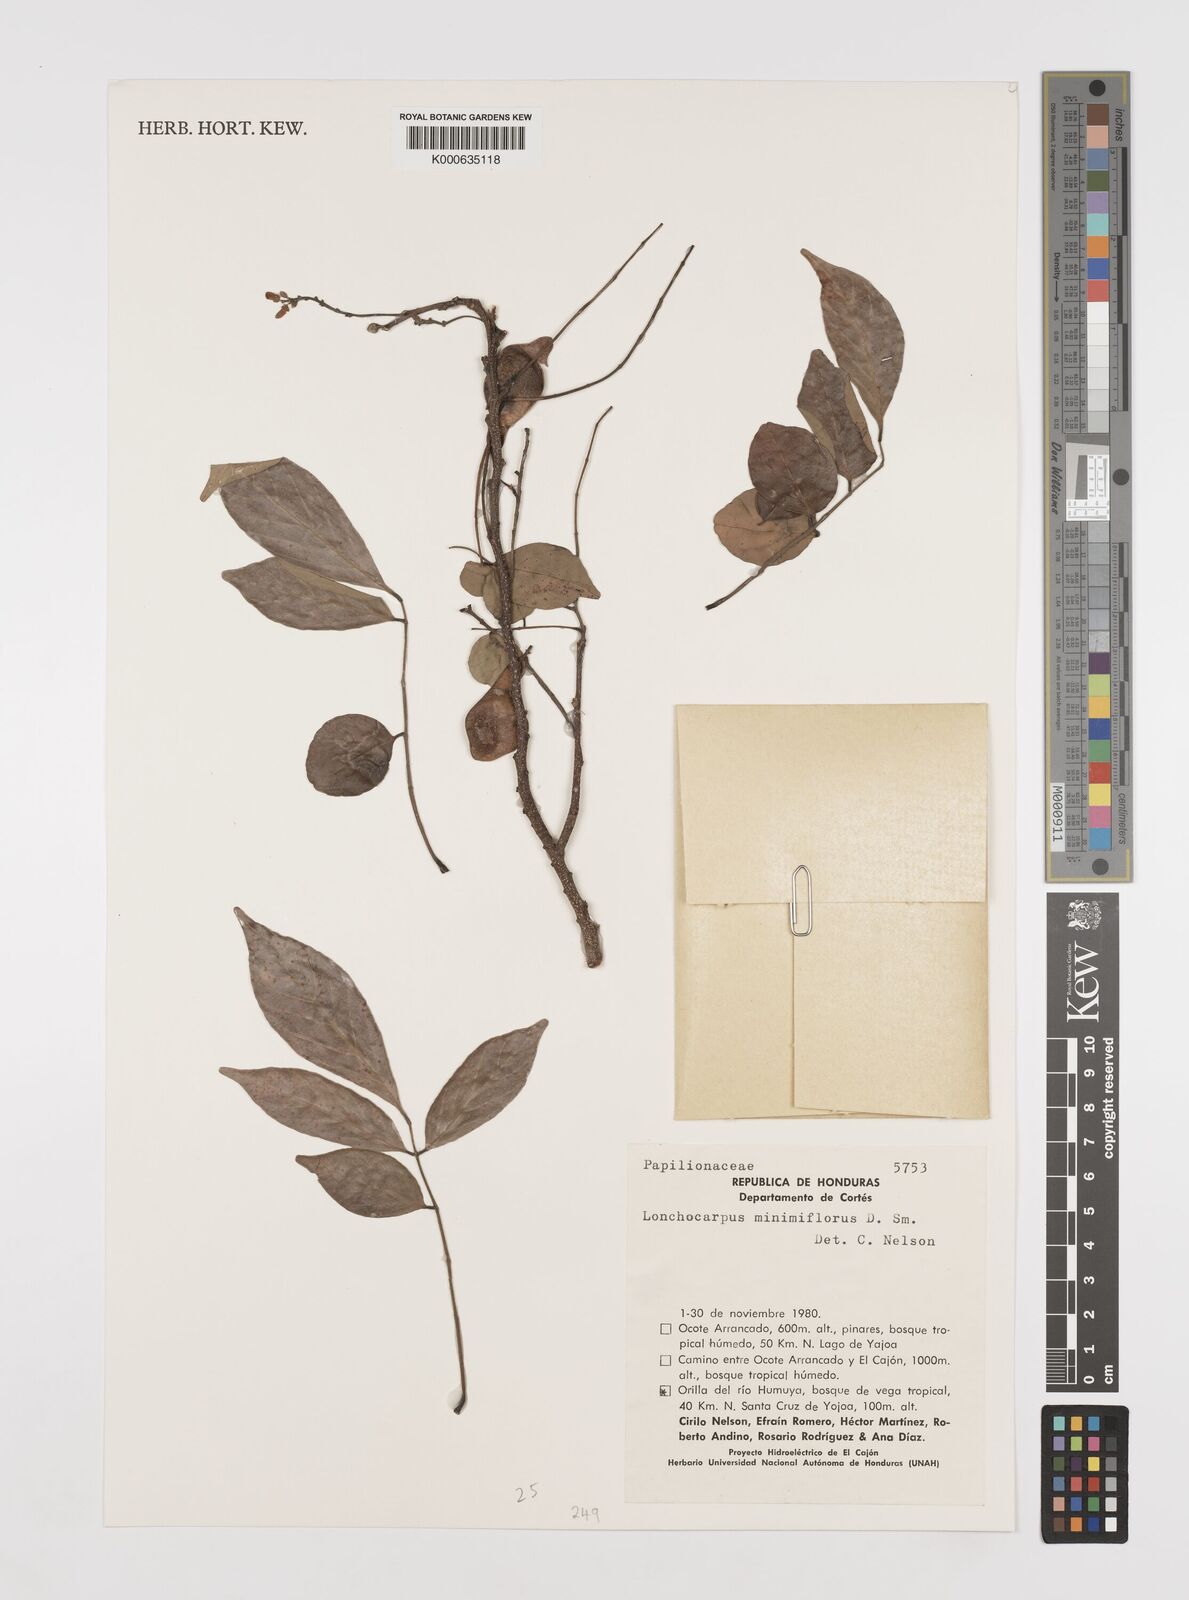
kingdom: Plantae
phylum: Tracheophyta
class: Magnoliopsida
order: Fabales
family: Fabaceae
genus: Lonchocarpus
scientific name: Lonchocarpus minimiflorus
